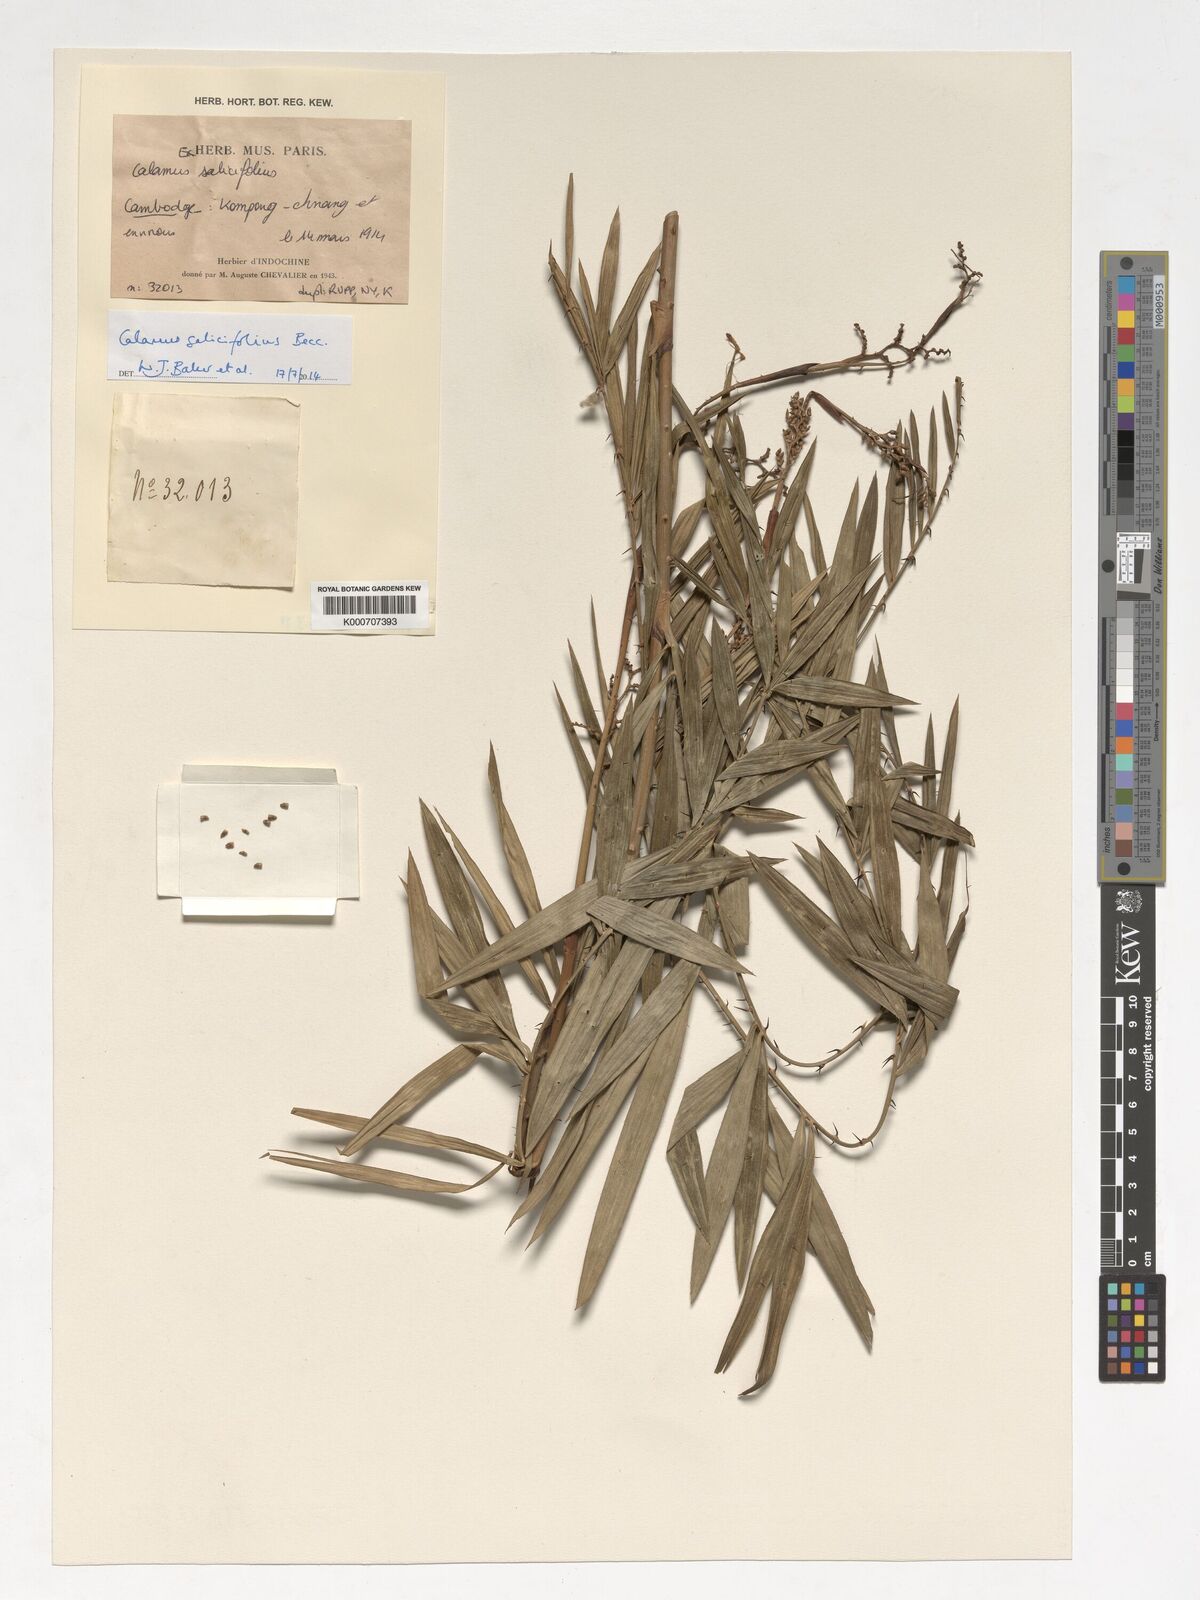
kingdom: Plantae
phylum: Tracheophyta
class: Liliopsida
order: Arecales
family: Arecaceae
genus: Calamus
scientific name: Calamus salicifolius
